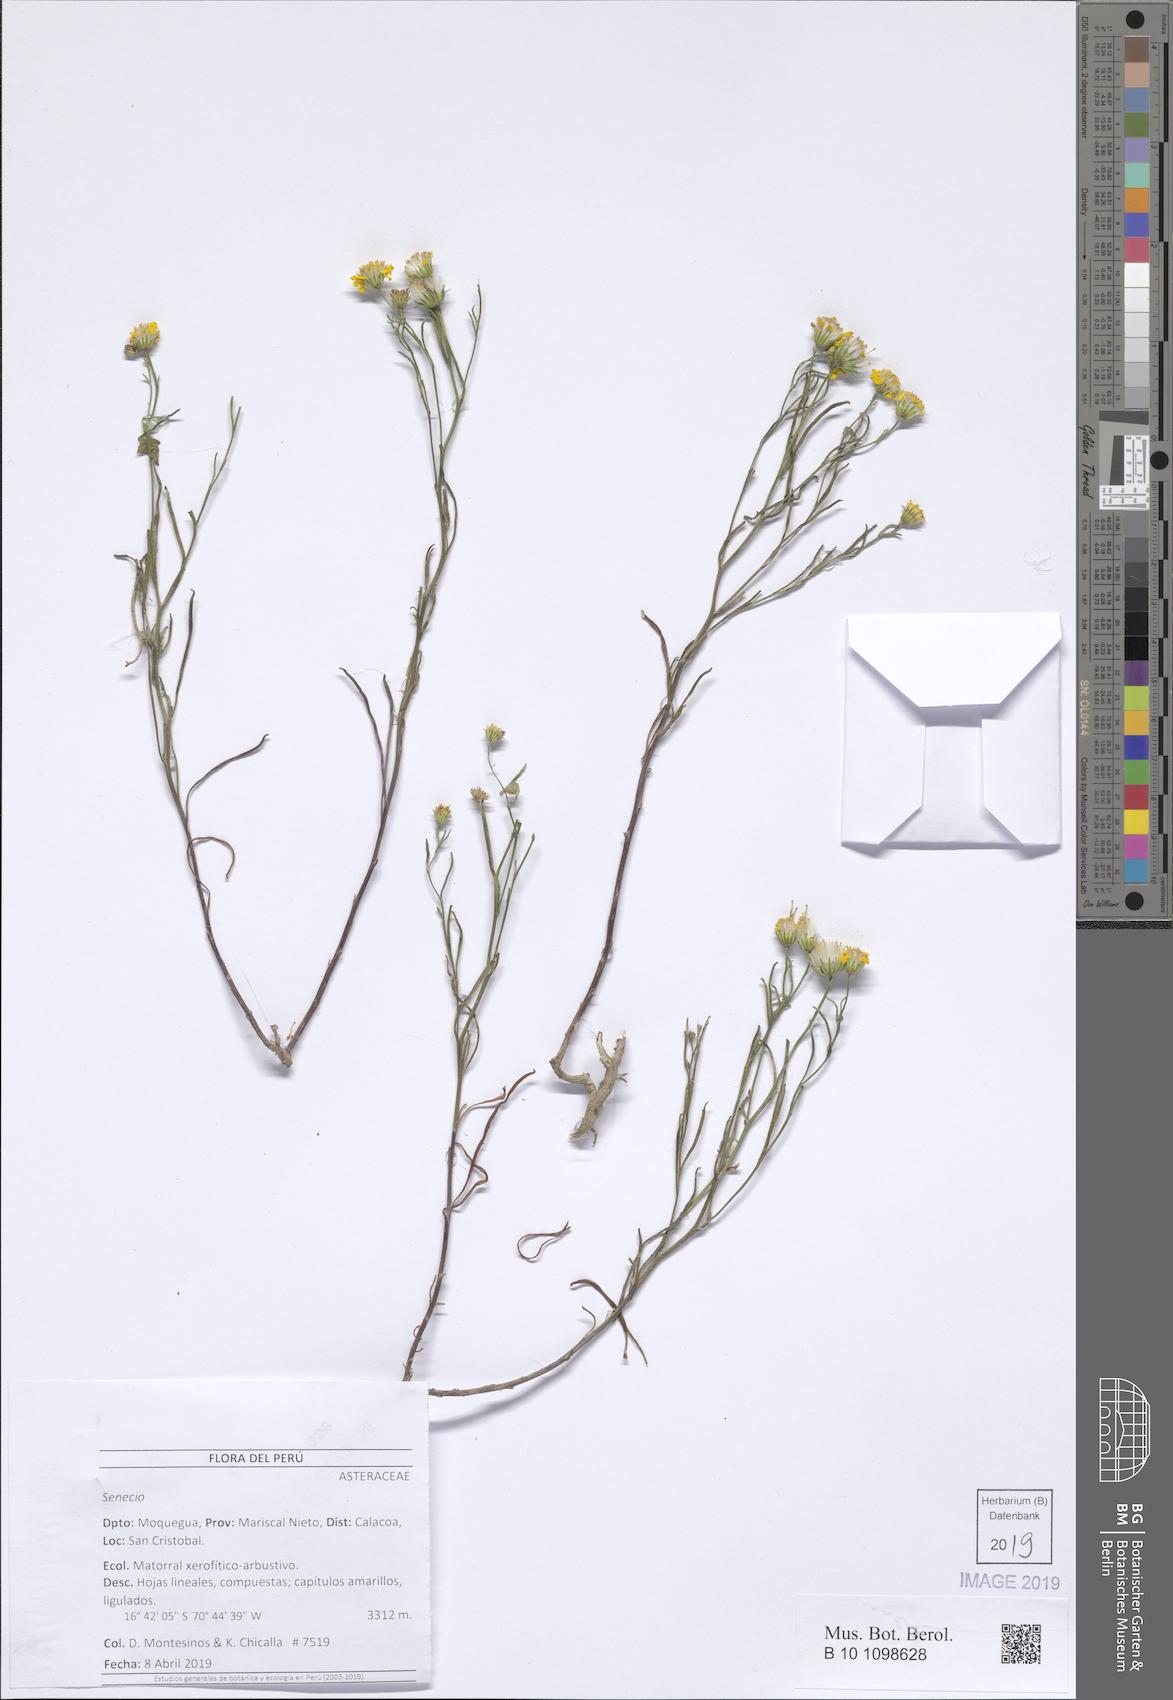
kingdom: Plantae
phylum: Tracheophyta
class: Magnoliopsida
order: Asterales
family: Asteraceae
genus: Senecio
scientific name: Senecio
